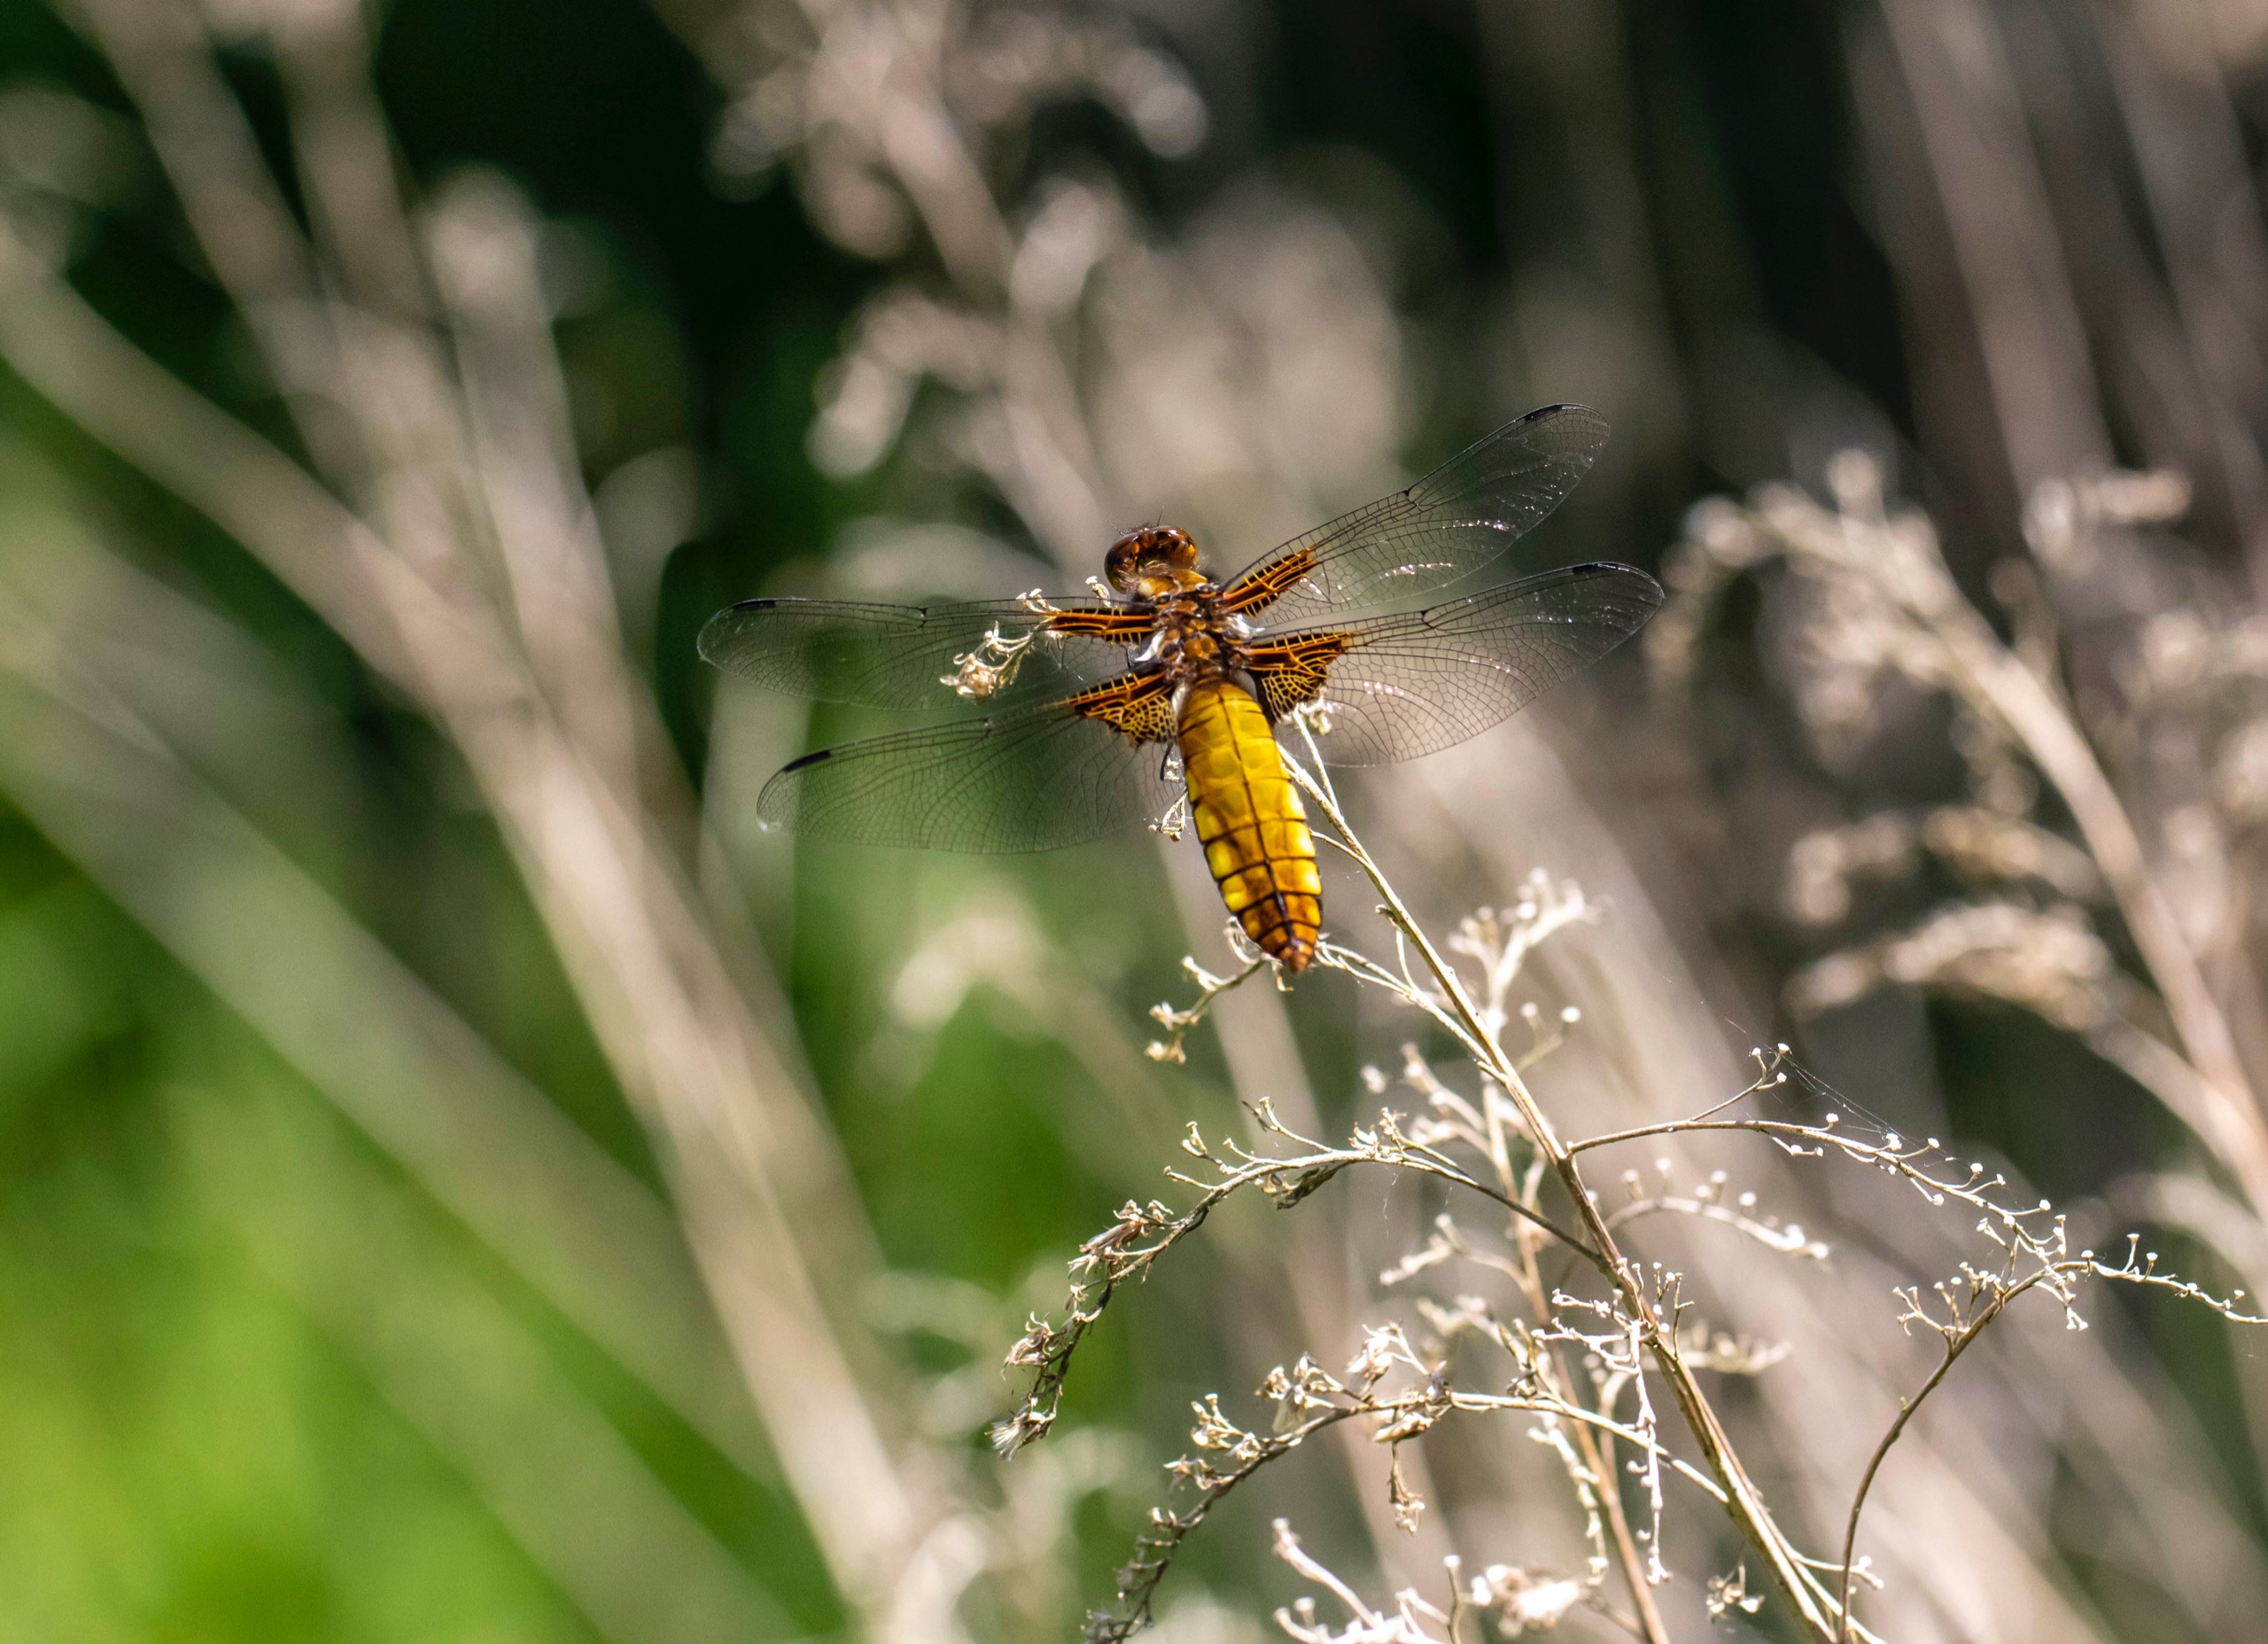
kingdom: Animalia
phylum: Arthropoda
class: Insecta
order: Odonata
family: Libellulidae
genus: Libellula
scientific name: Libellula depressa
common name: Blå libel
